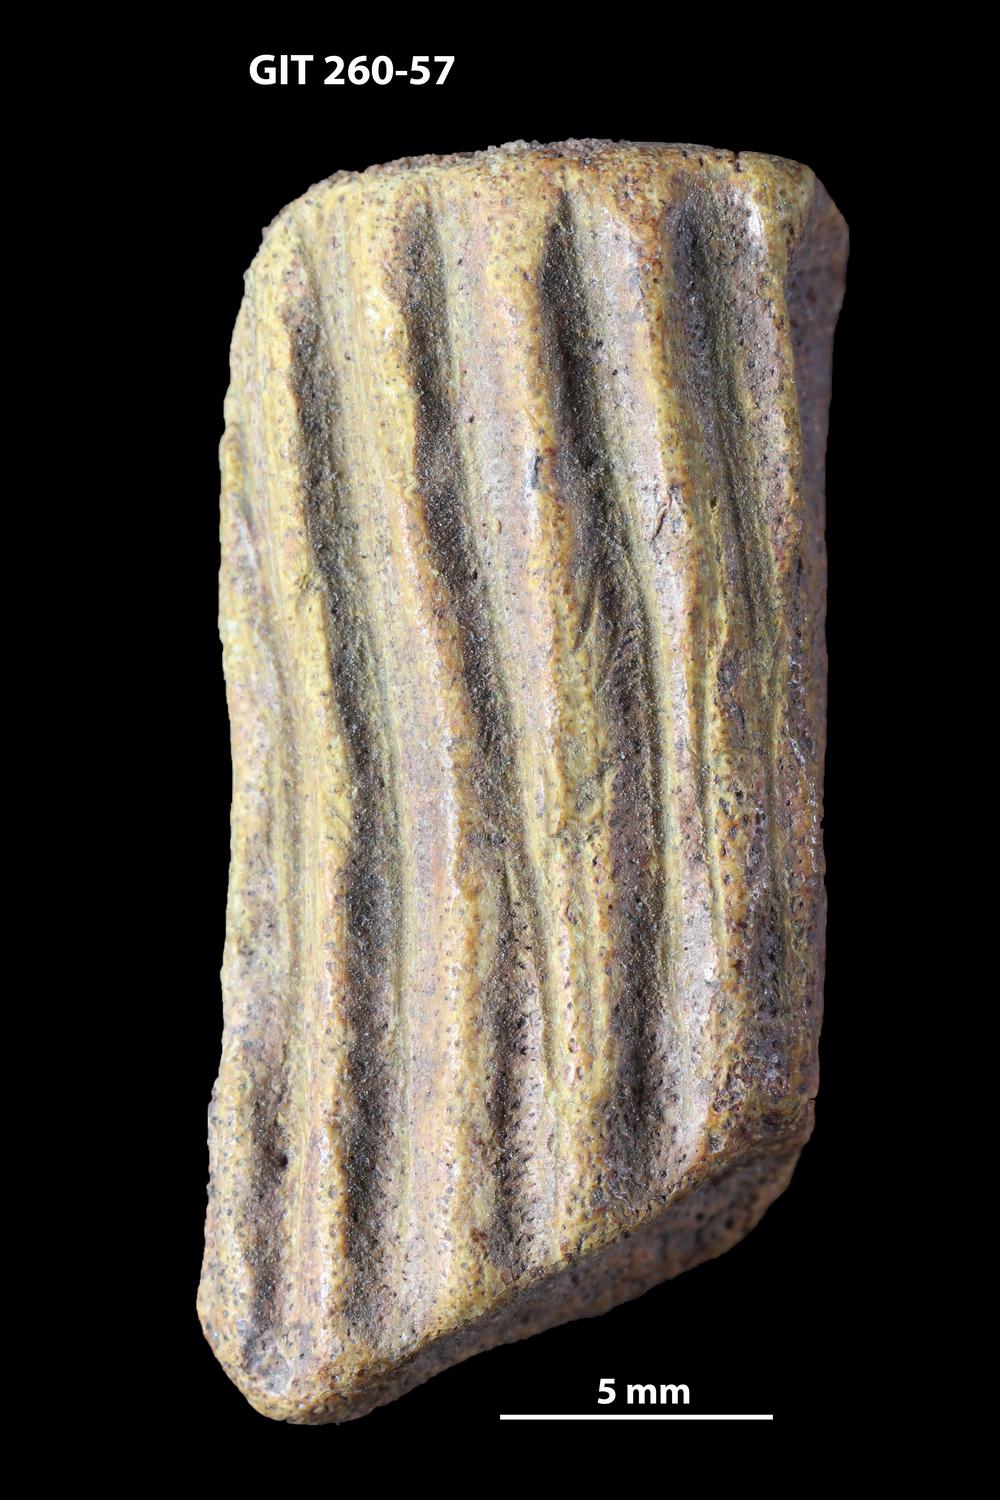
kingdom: Animalia
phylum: Chordata
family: Homostiidae
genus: Homostius
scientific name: Homostius
